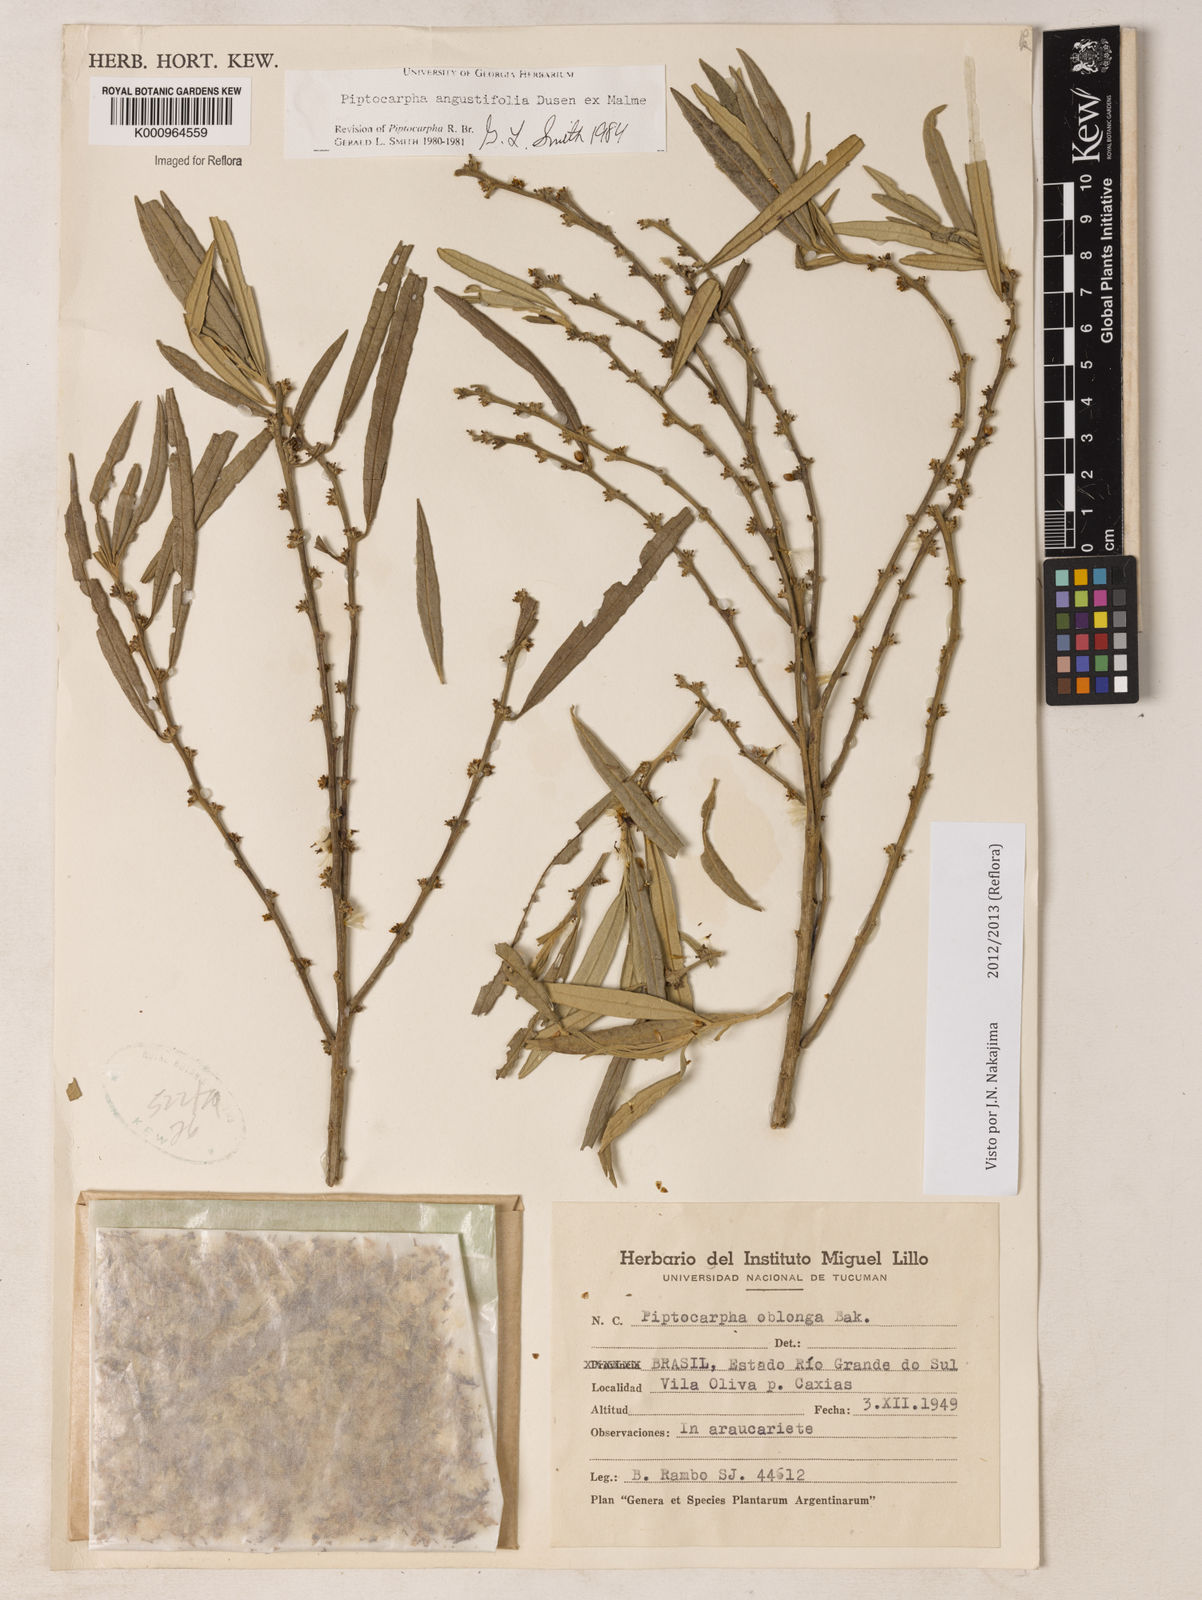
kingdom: Plantae
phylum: Tracheophyta
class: Magnoliopsida
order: Asterales
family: Asteraceae
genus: Piptocarpha
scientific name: Piptocarpha
